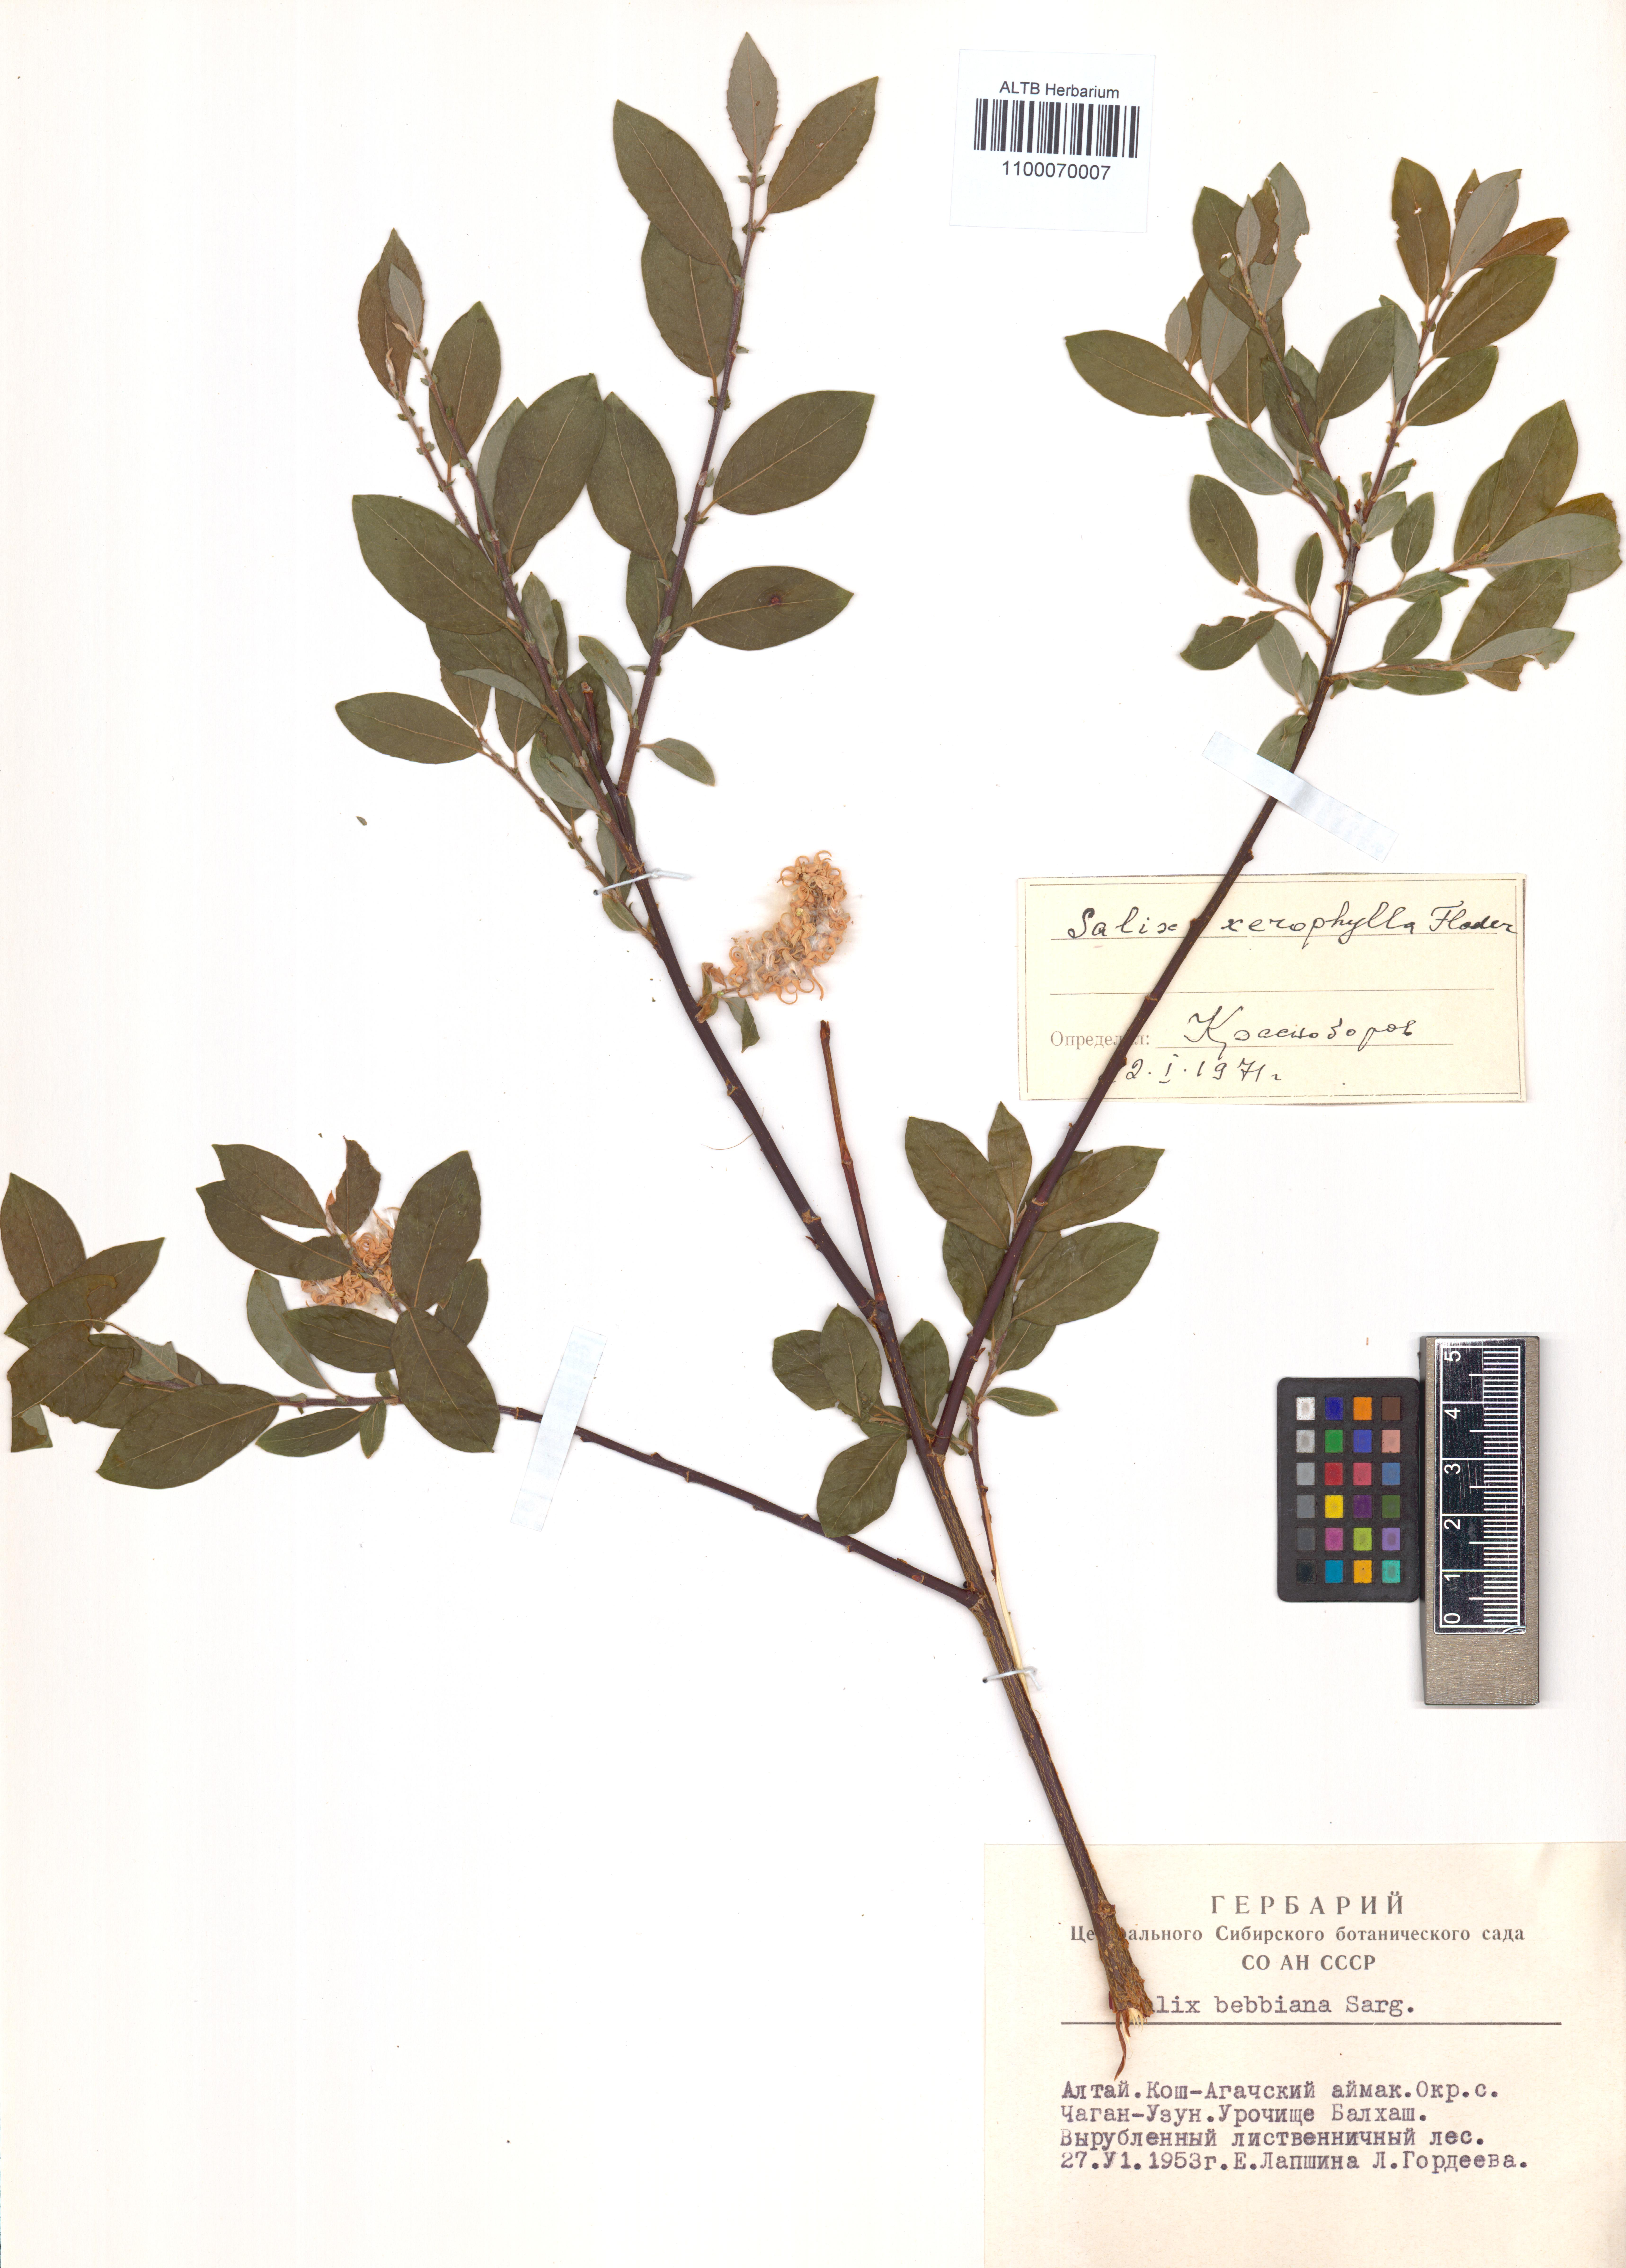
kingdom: Plantae
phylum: Tracheophyta
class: Magnoliopsida
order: Malpighiales
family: Salicaceae
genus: Salix
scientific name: Salix bebbiana
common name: Bebb's willow
